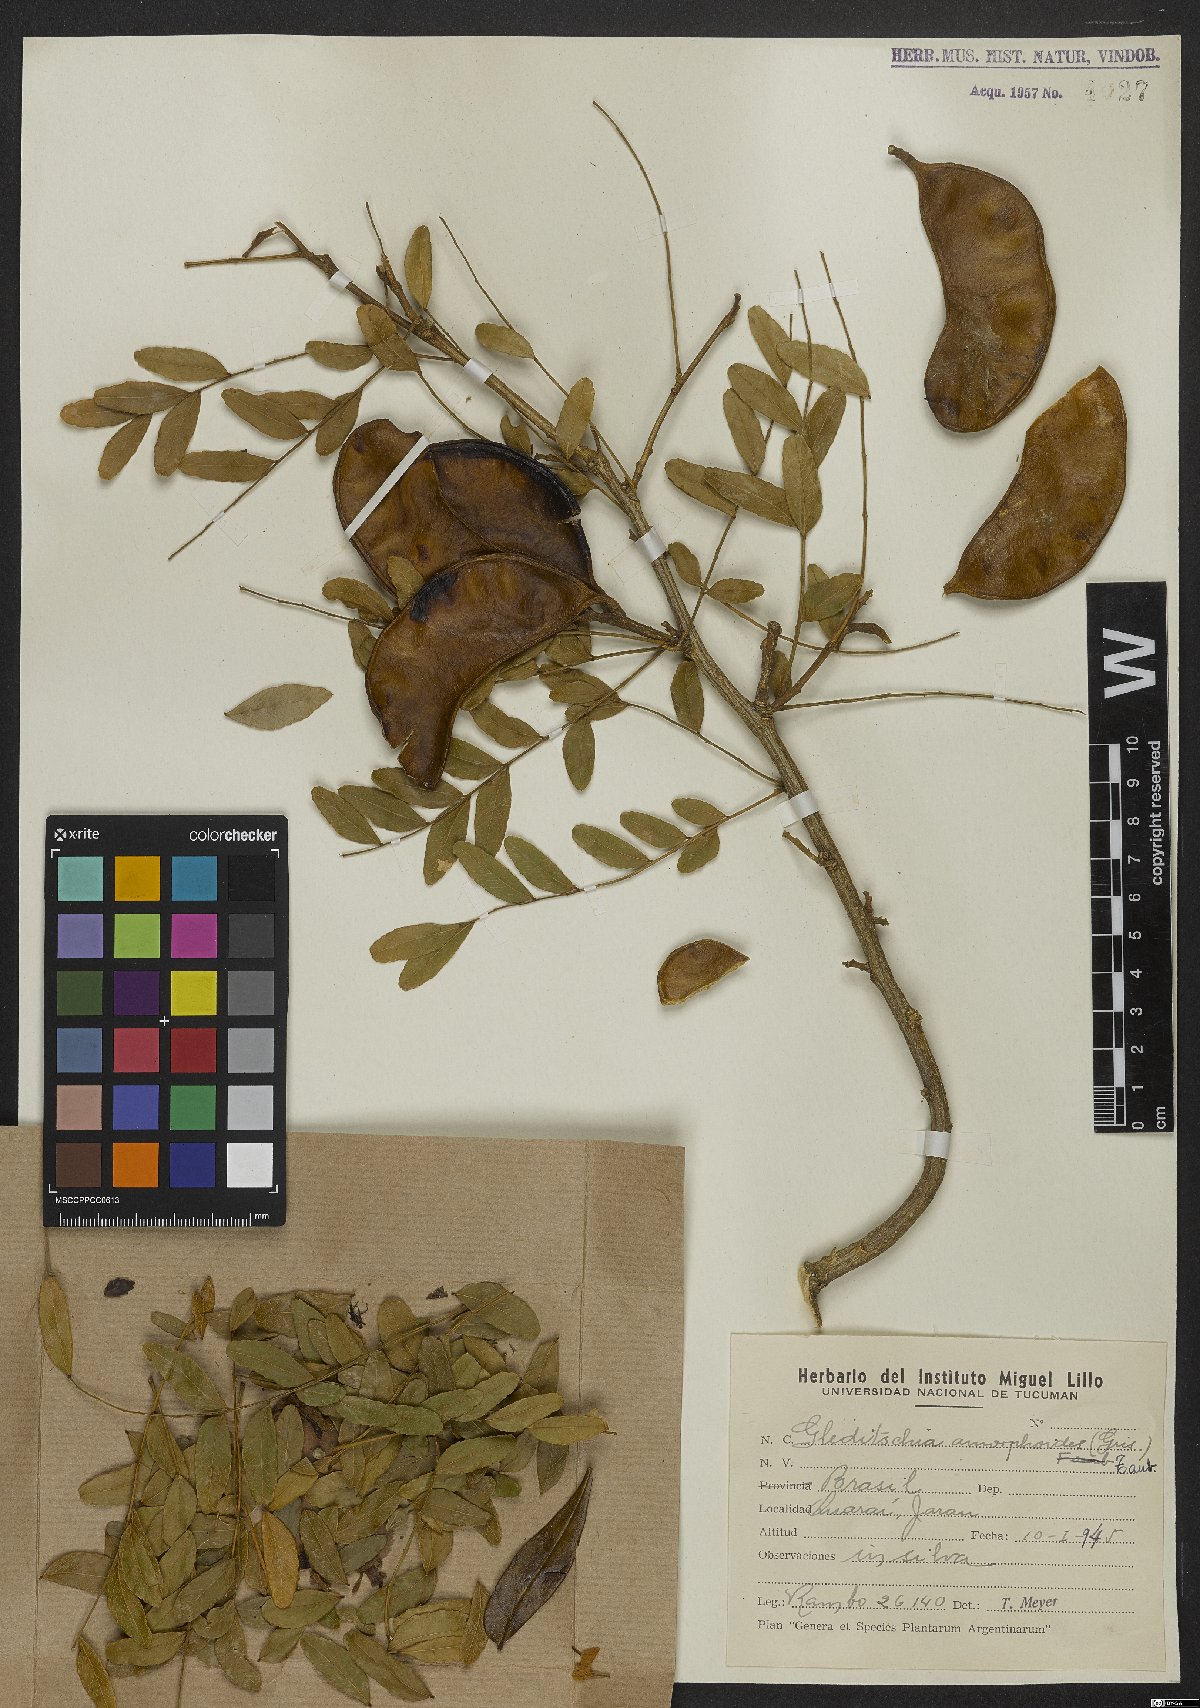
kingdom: Plantae
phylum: Tracheophyta
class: Magnoliopsida
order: Fabales
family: Fabaceae
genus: Gleditsia
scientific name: Gleditsia amorphoides
